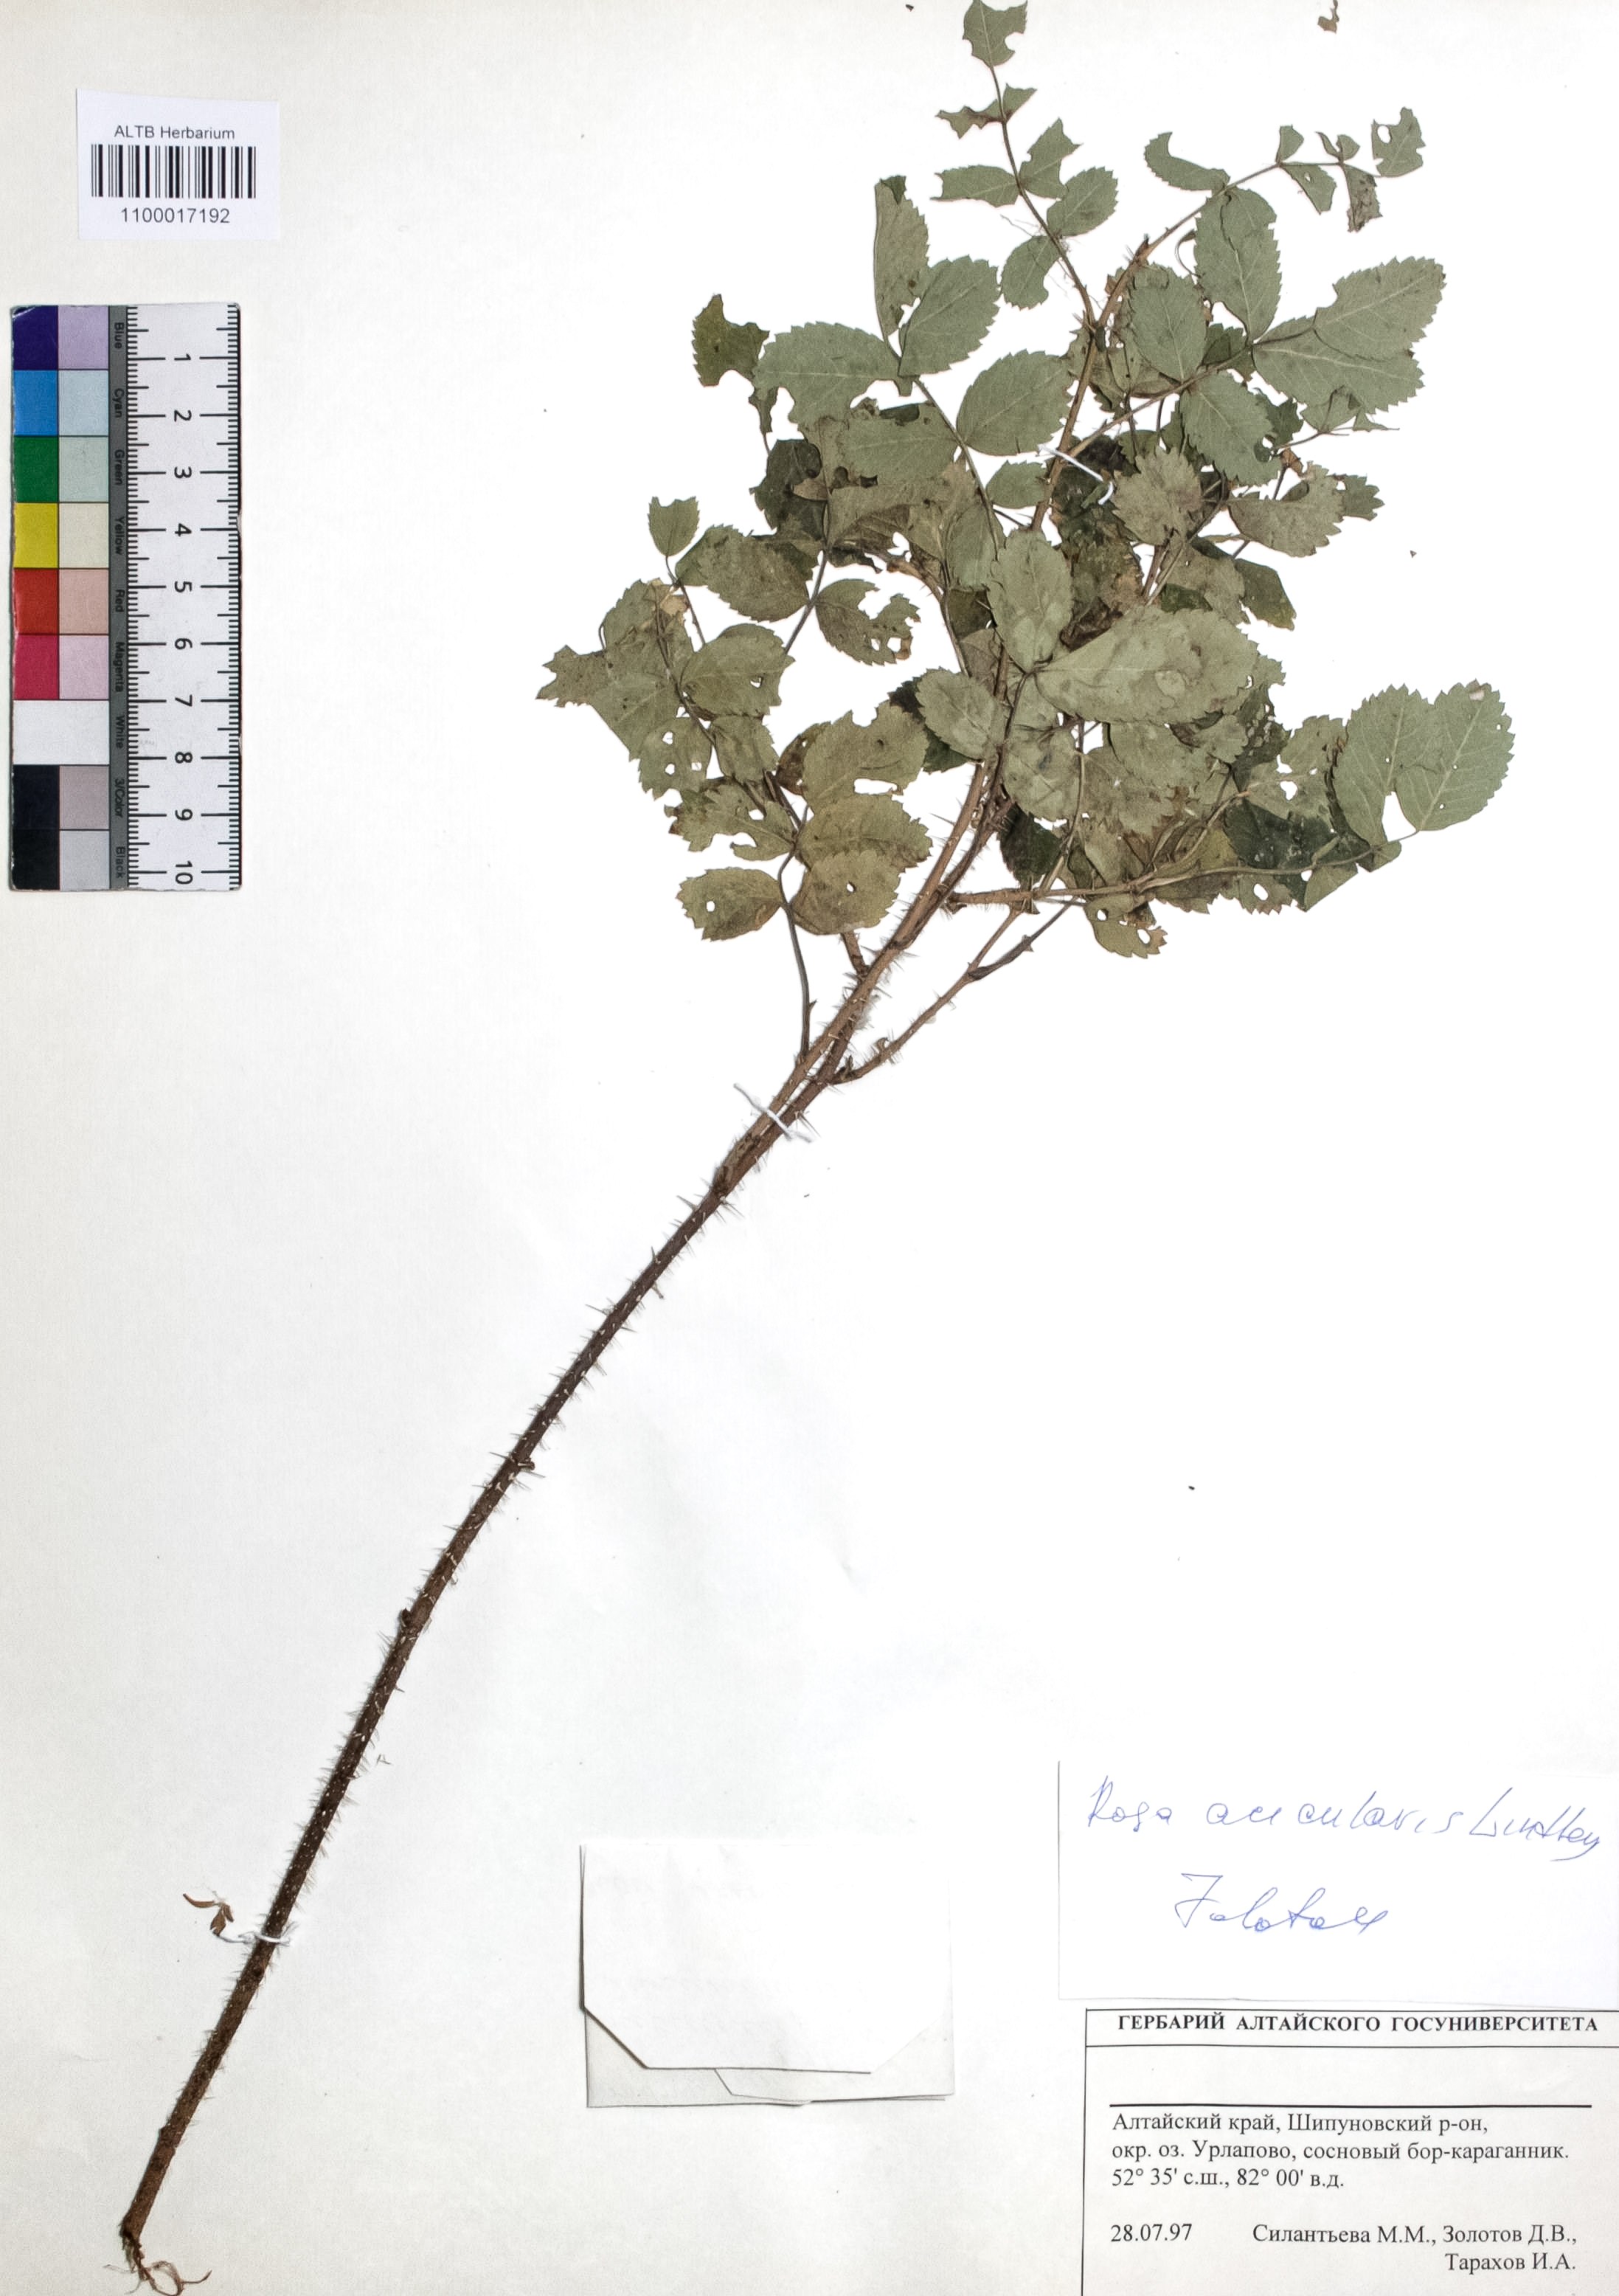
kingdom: Plantae
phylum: Tracheophyta
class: Magnoliopsida
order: Rosales
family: Rosaceae
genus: Rosa
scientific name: Rosa acicularis
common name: Prickly rose
